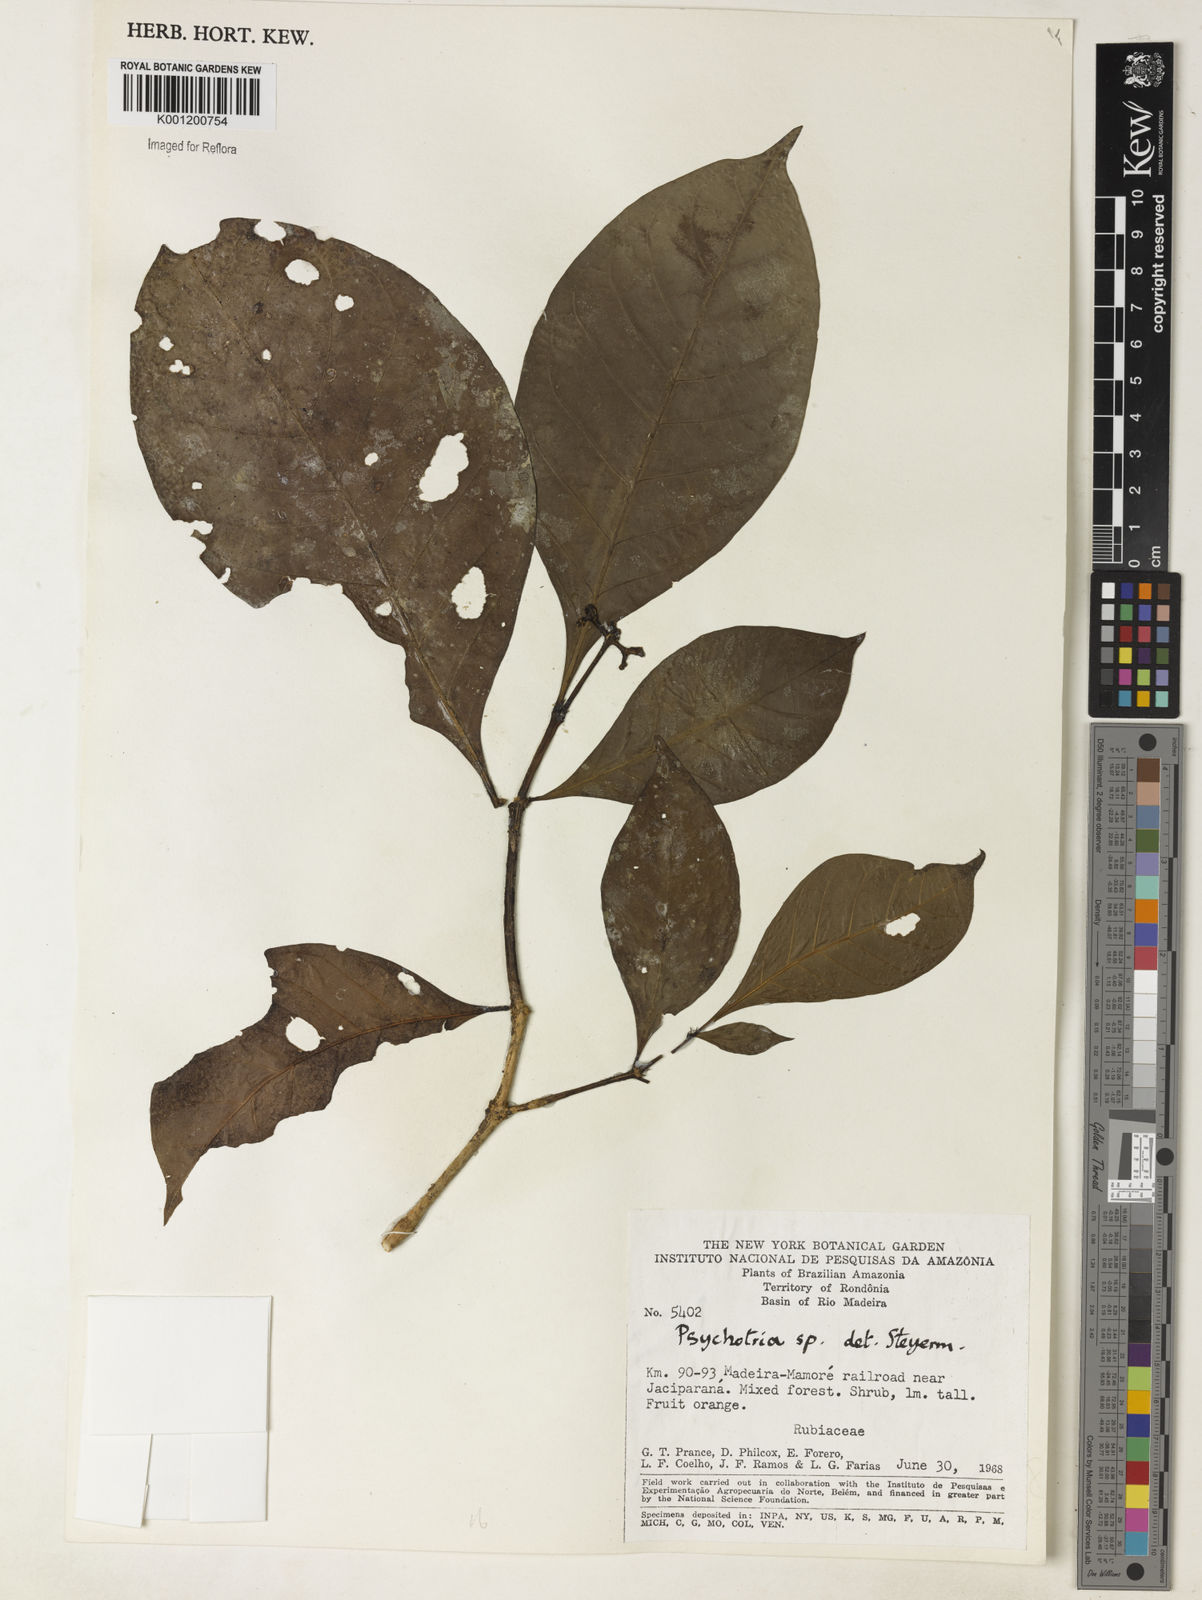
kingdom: Plantae
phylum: Tracheophyta
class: Magnoliopsida
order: Gentianales
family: Rubiaceae
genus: Psychotria
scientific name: Psychotria
